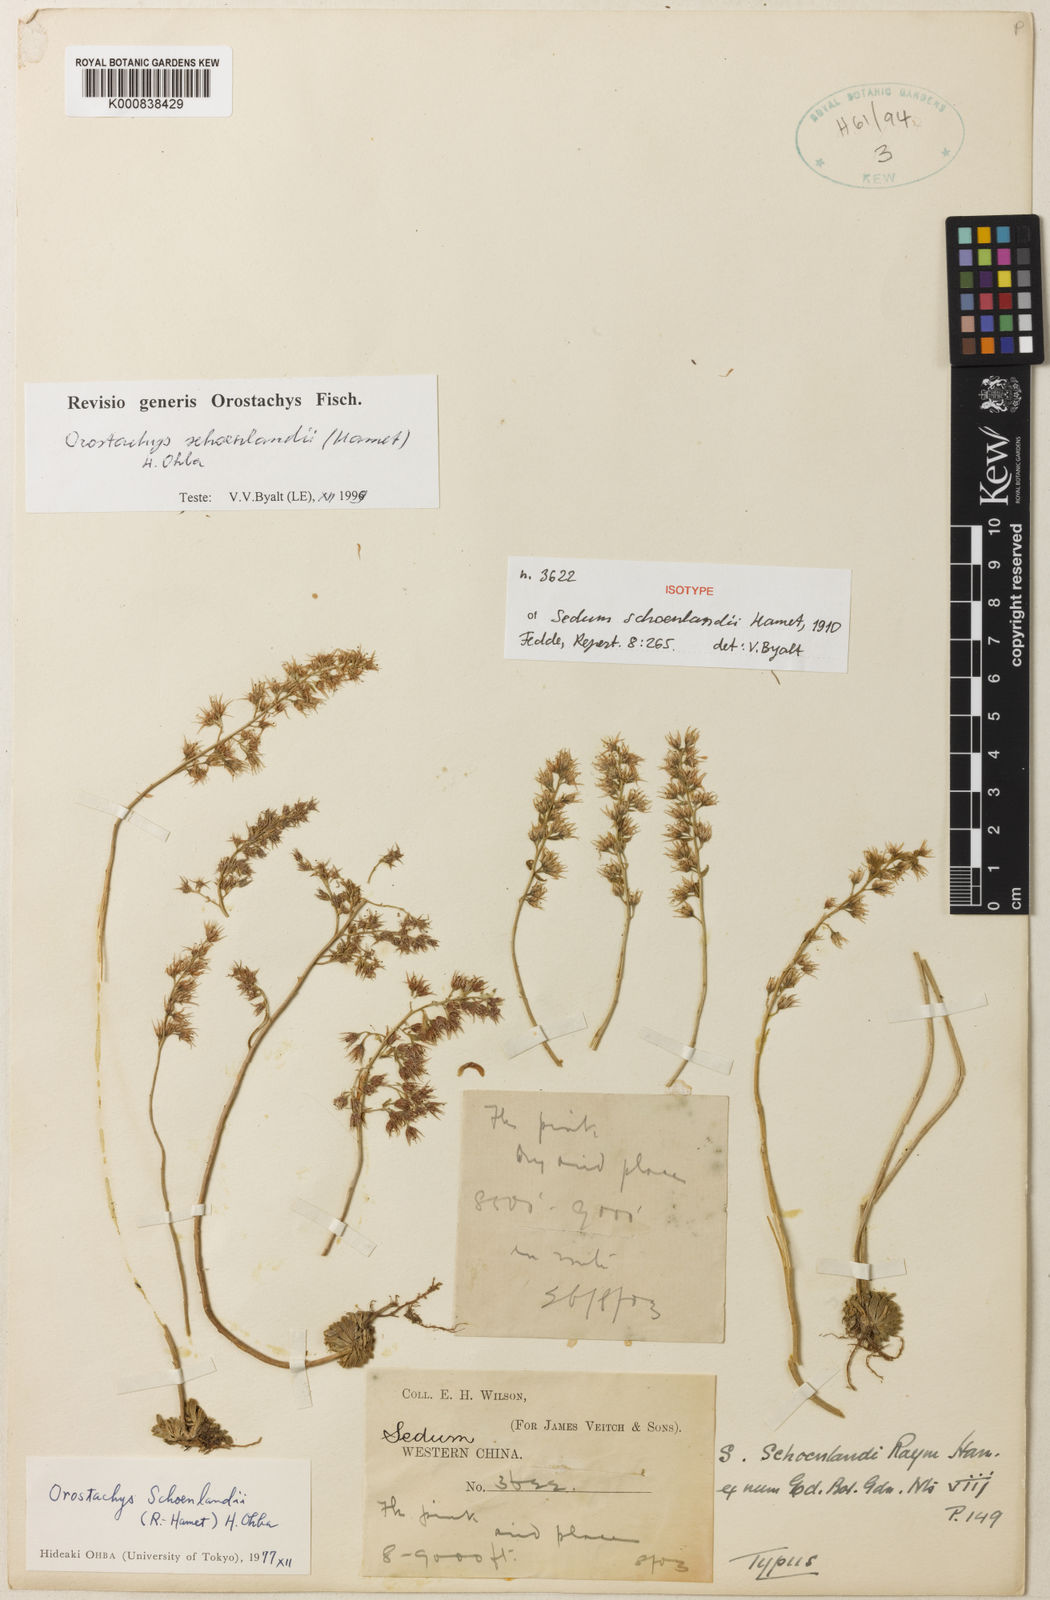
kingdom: Plantae
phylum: Tracheophyta
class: Magnoliopsida
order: Saxifragales
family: Crassulaceae
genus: Orostachys
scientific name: Orostachys schoenlandii
